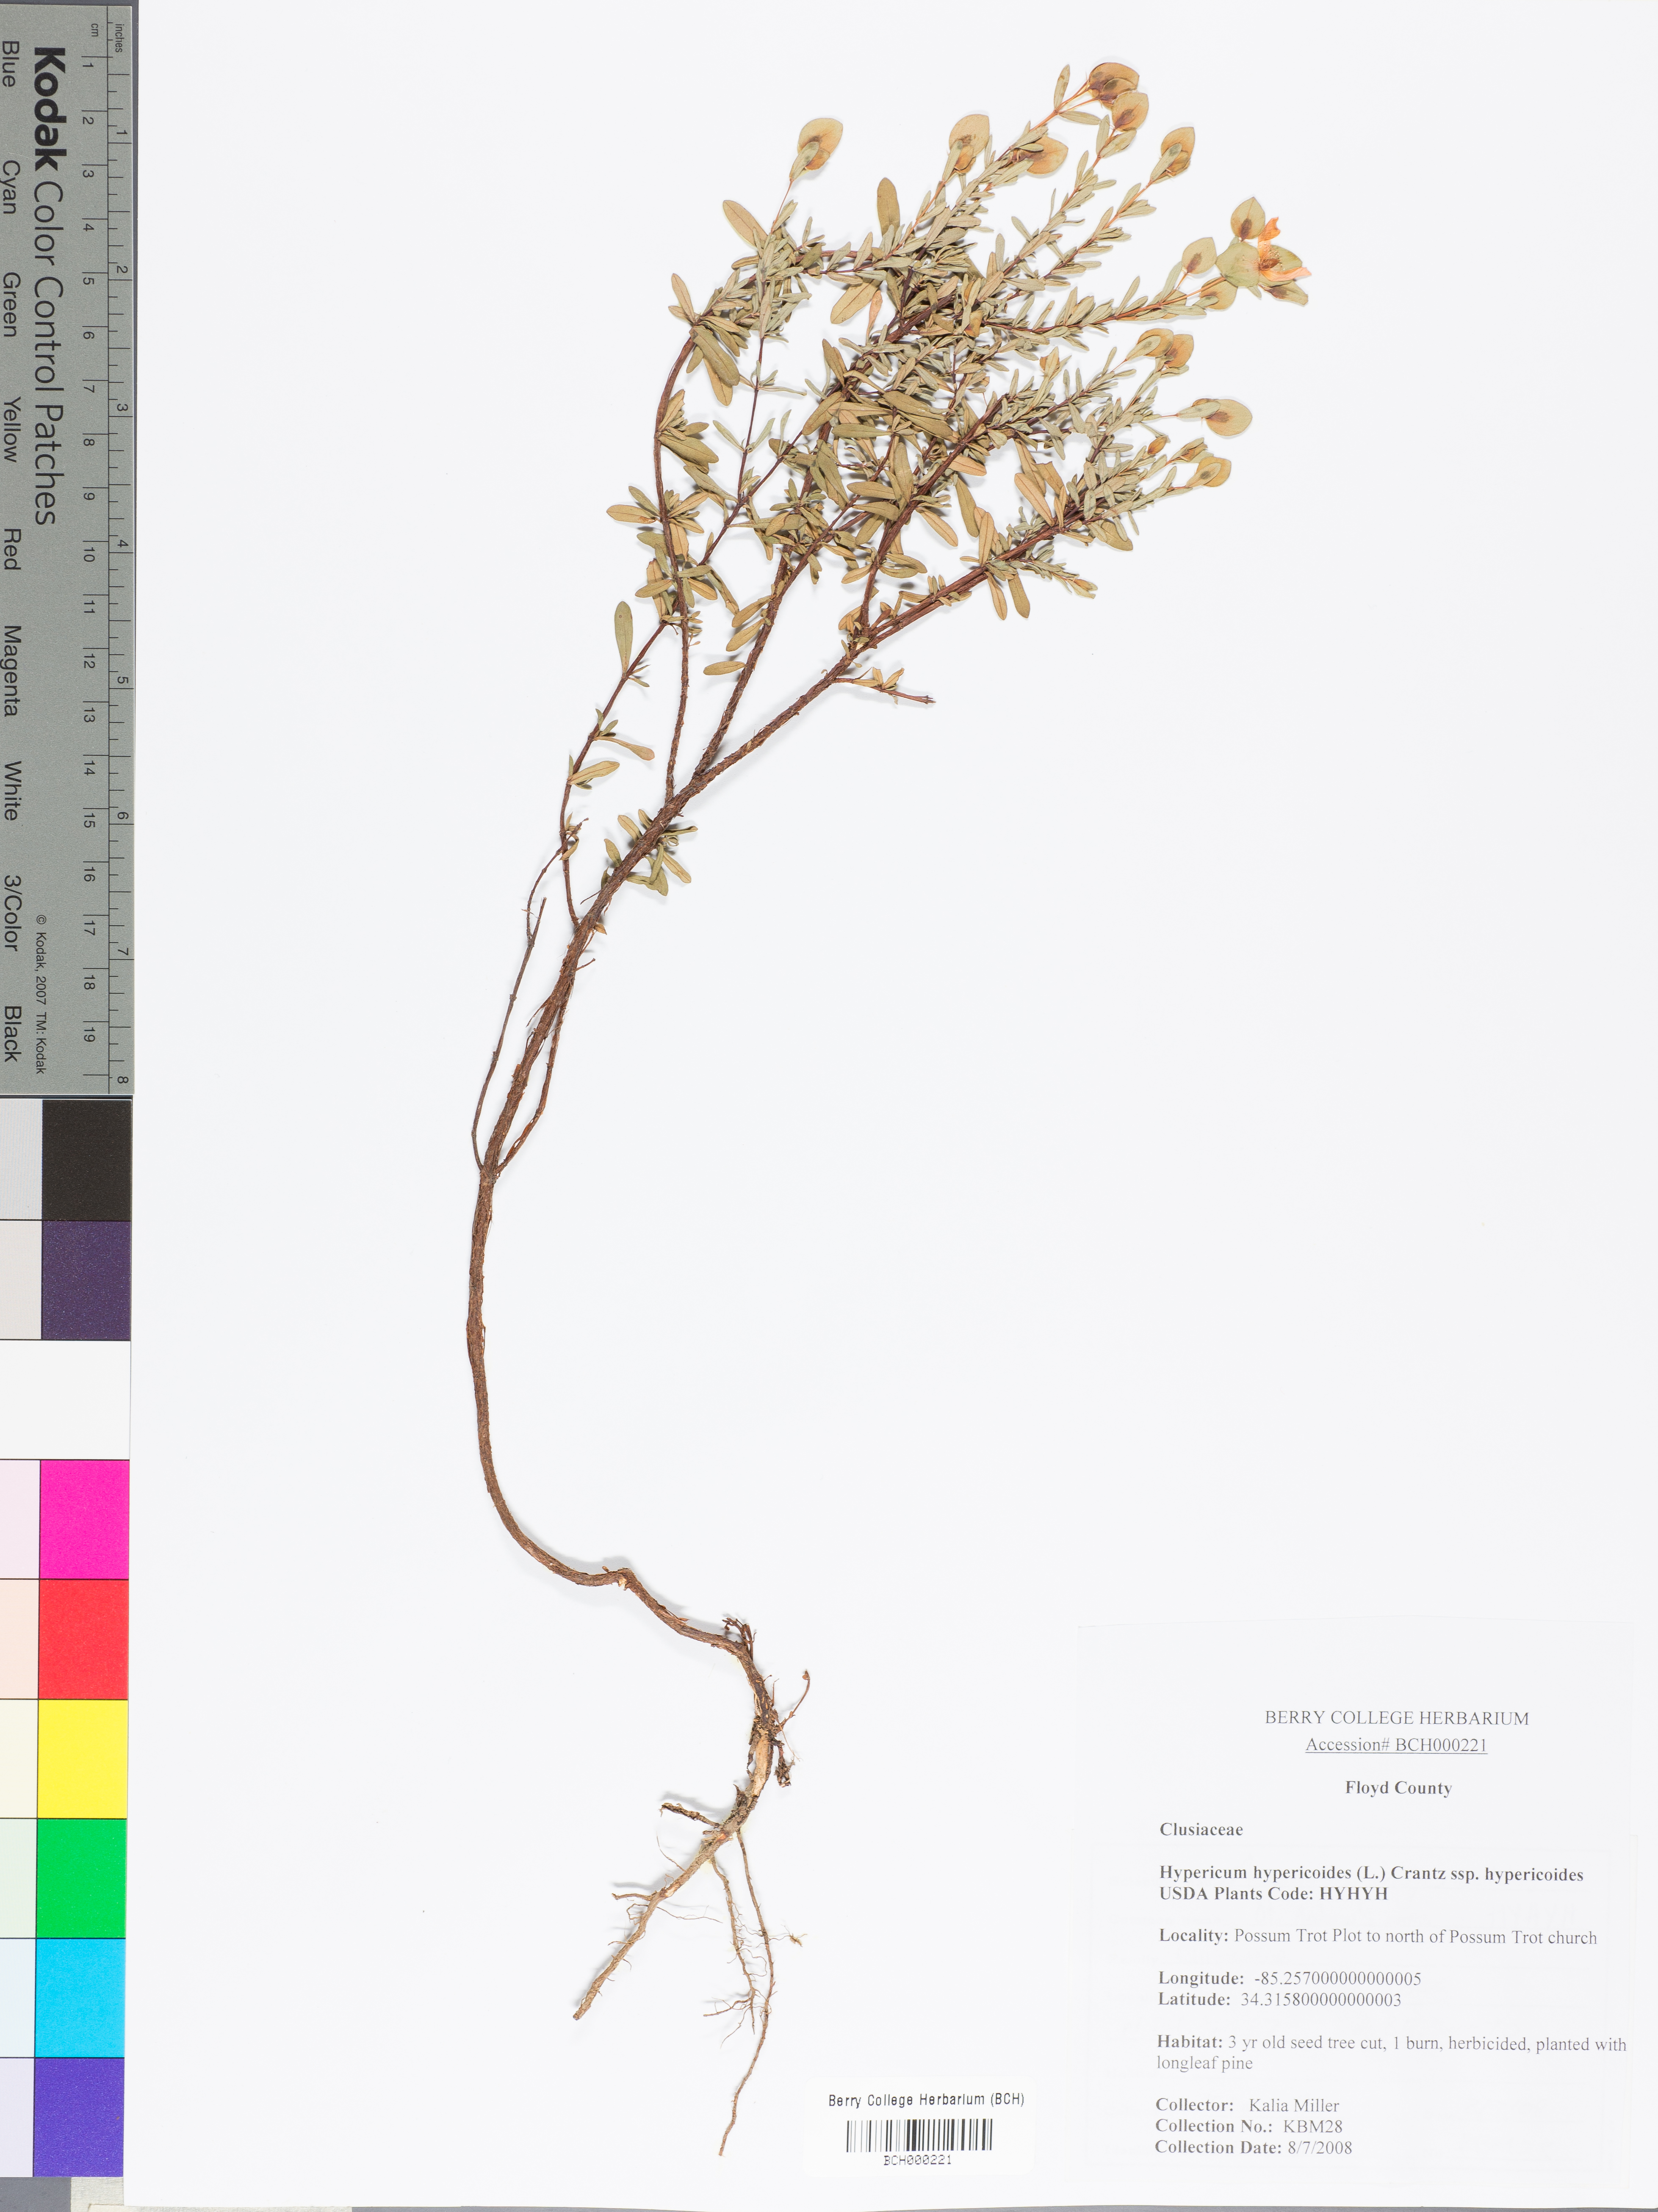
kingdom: Plantae
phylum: Tracheophyta
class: Magnoliopsida
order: Malpighiales
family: Hypericaceae
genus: Hypericum
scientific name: Hypericum hypericoides
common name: St. andrew's cross
